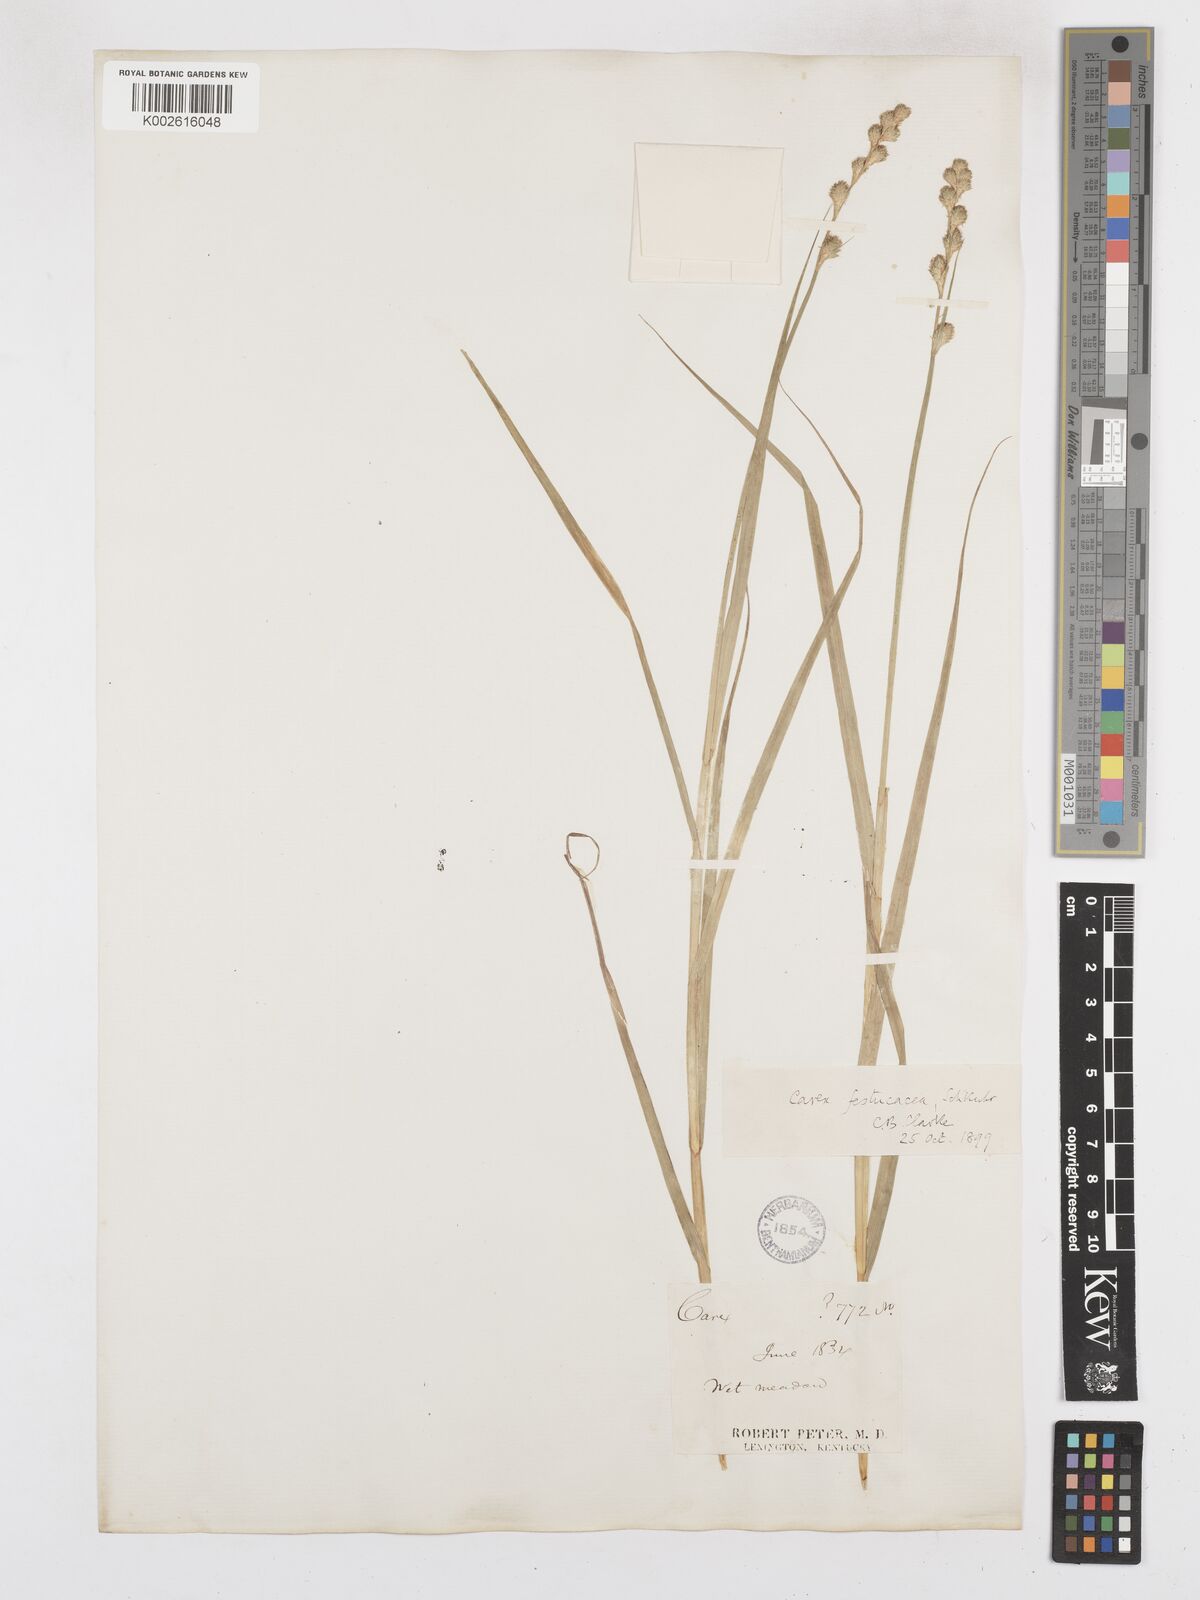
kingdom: Plantae
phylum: Tracheophyta
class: Liliopsida
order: Poales
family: Cyperaceae
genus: Carex
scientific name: Carex festucacea
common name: Fescue oval sedge
